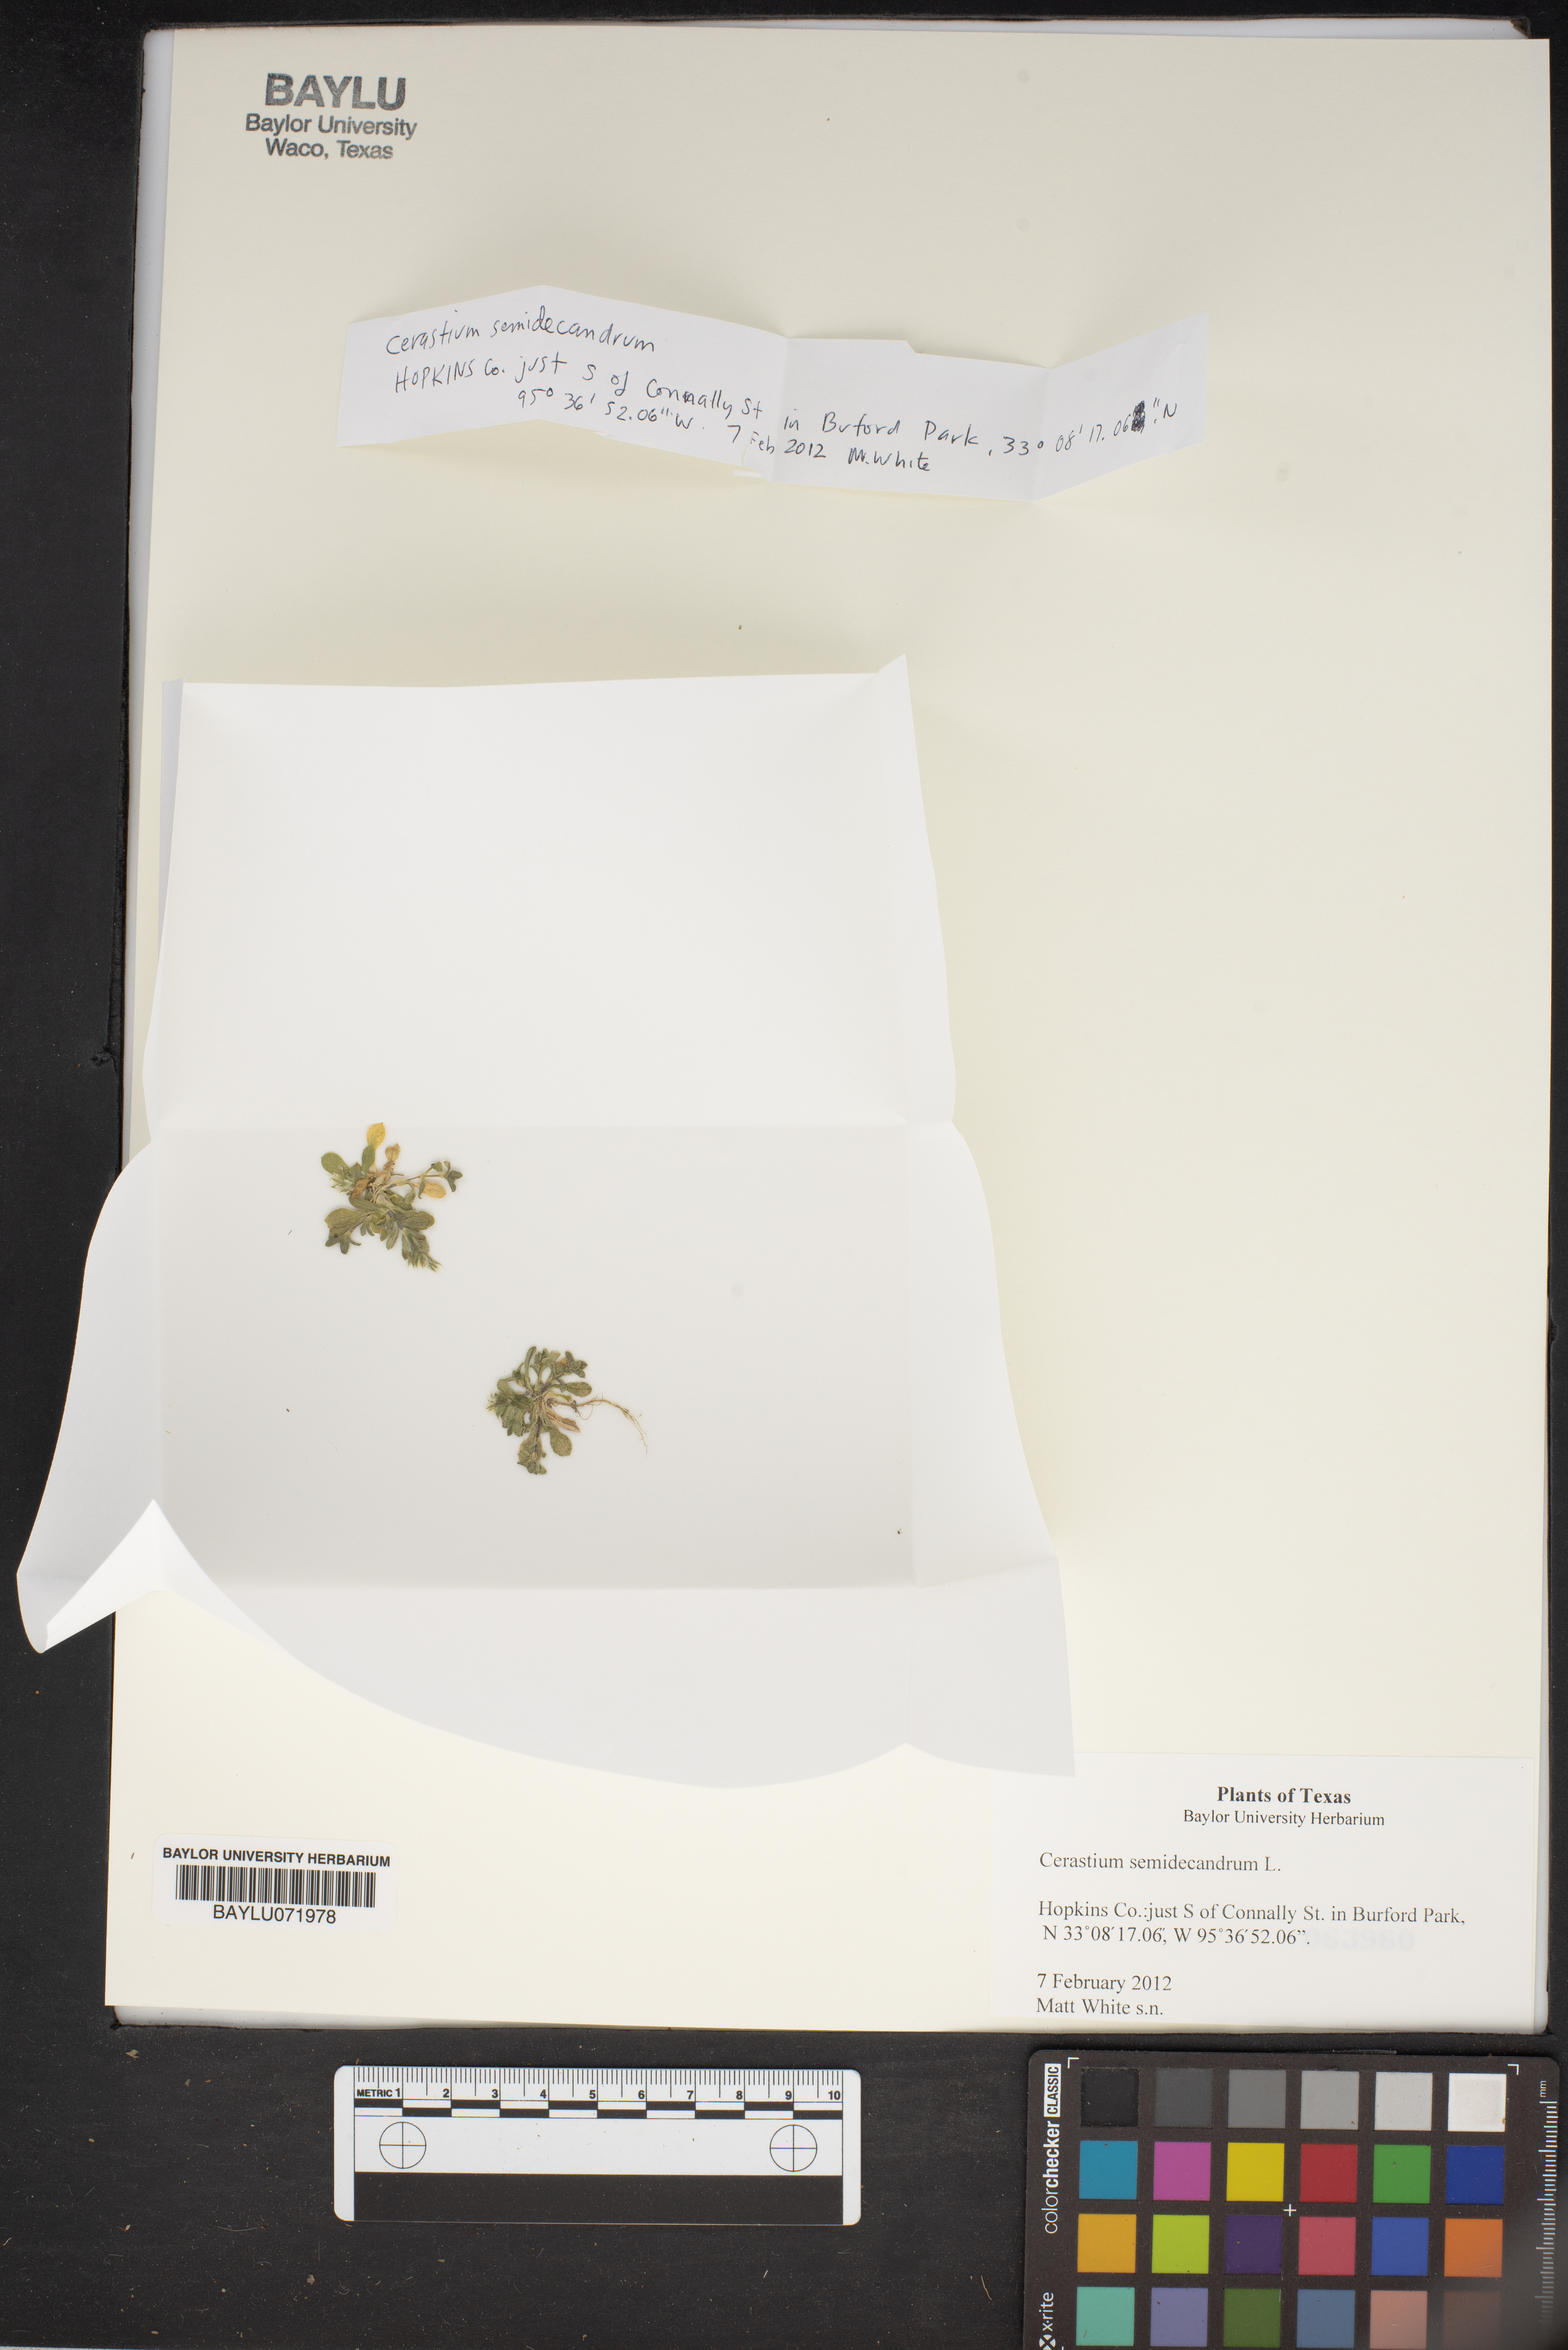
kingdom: Plantae
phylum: Tracheophyta
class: Magnoliopsida
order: Caryophyllales
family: Caryophyllaceae
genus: Cerastium
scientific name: Cerastium semidecandrum
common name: Little mouse-ear
